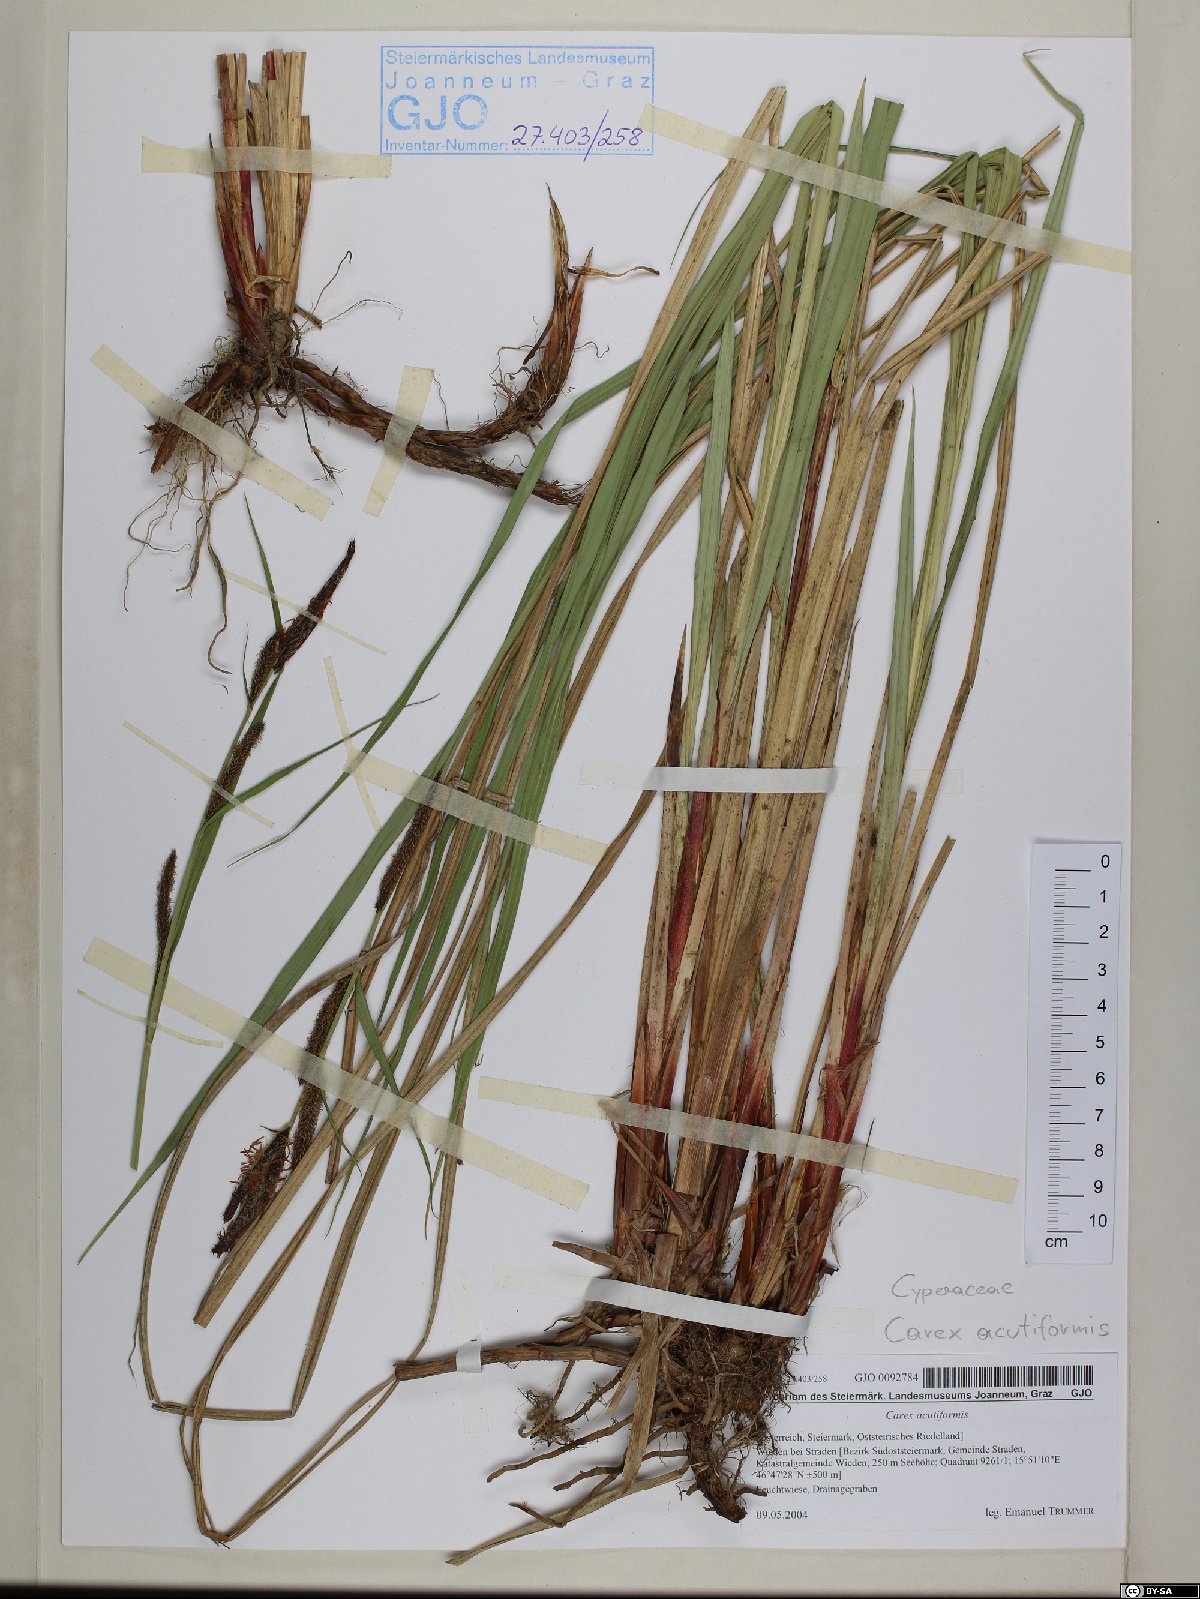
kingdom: Plantae
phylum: Tracheophyta
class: Liliopsida
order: Poales
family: Cyperaceae
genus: Carex
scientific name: Carex acutiformis
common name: Lesser pond-sedge
